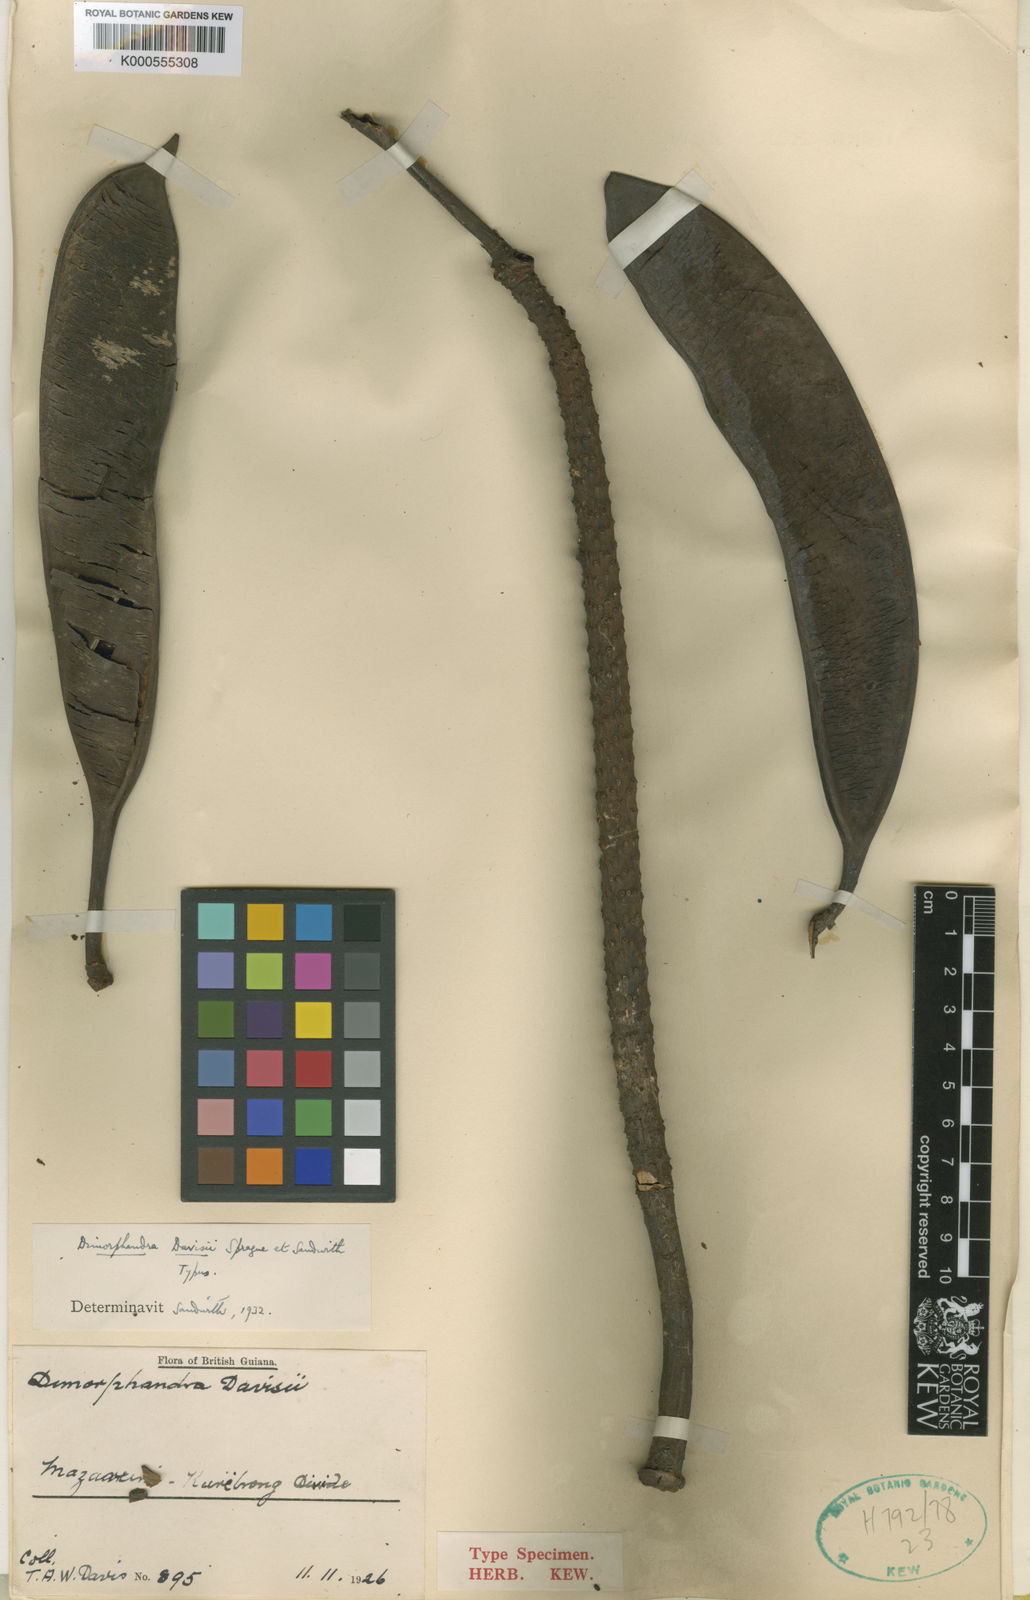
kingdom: Plantae
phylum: Tracheophyta
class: Magnoliopsida
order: Fabales
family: Fabaceae
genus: Dimorphandra
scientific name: Dimorphandra davisii
